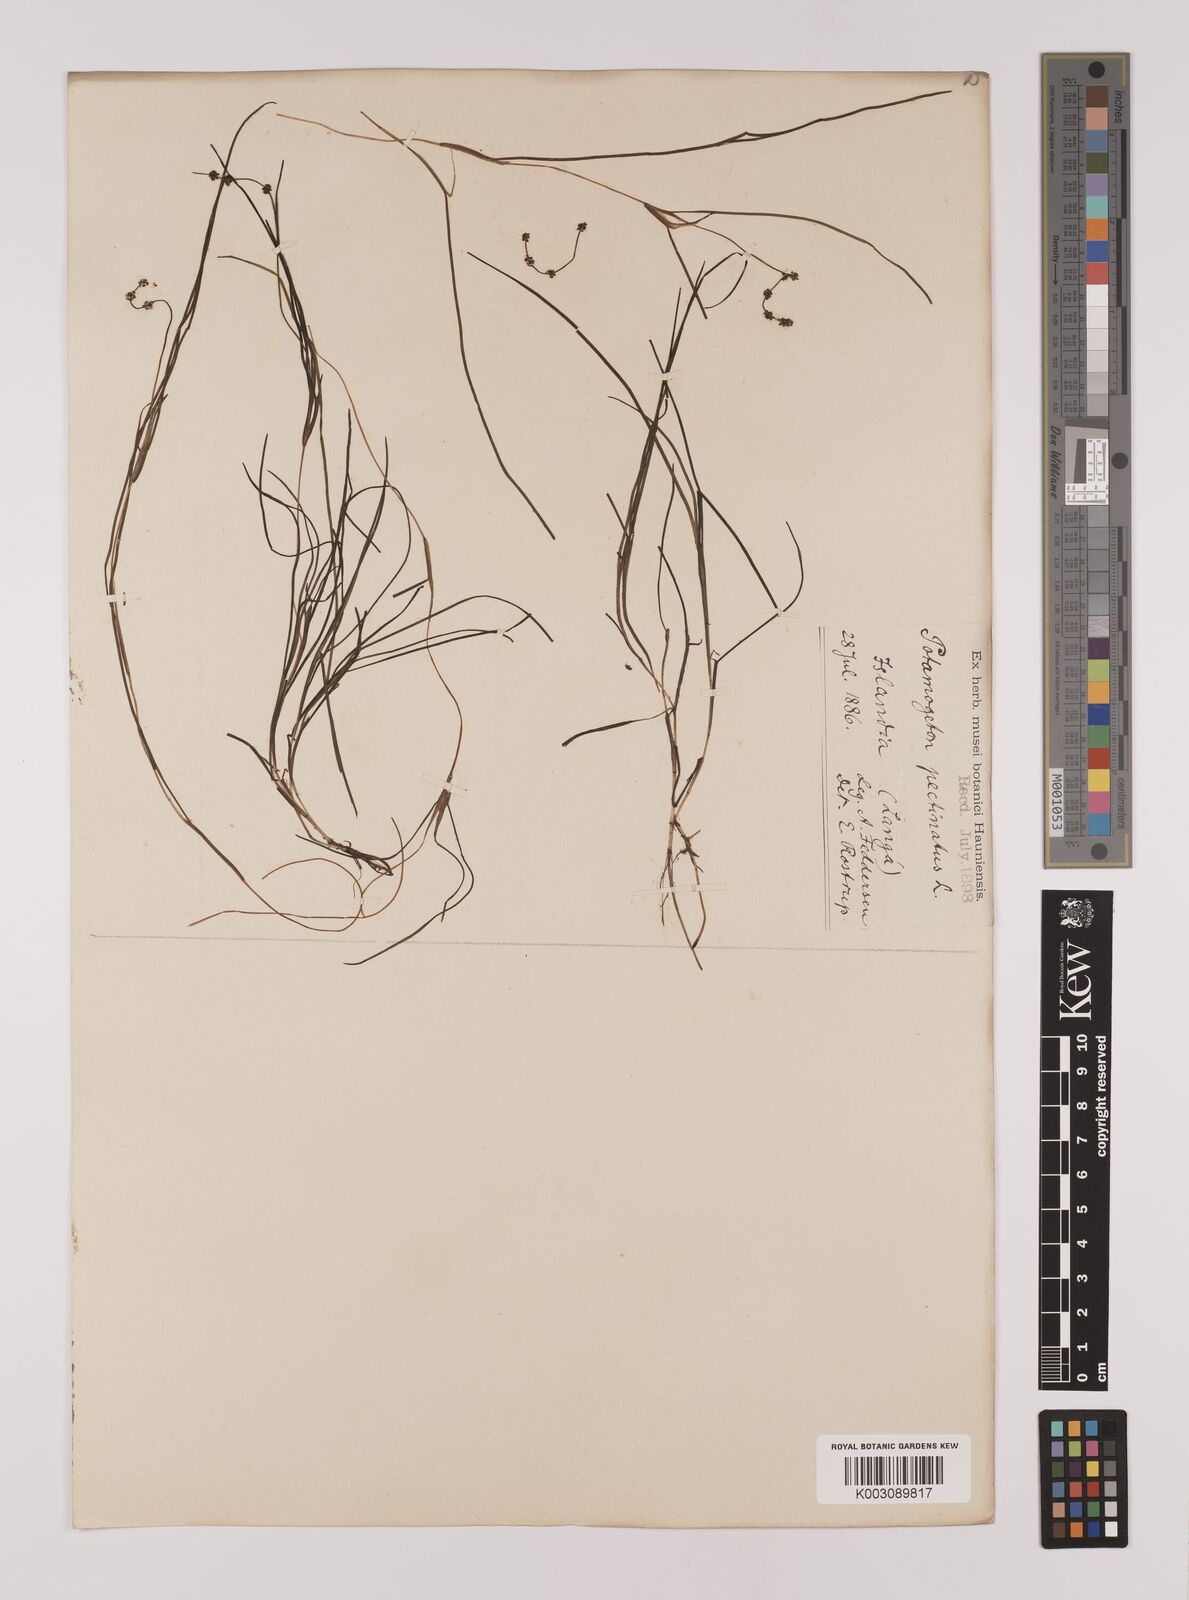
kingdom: Plantae
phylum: Tracheophyta
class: Liliopsida
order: Alismatales
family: Potamogetonaceae
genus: Stuckenia
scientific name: Stuckenia pectinata
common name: Sago pondweed
